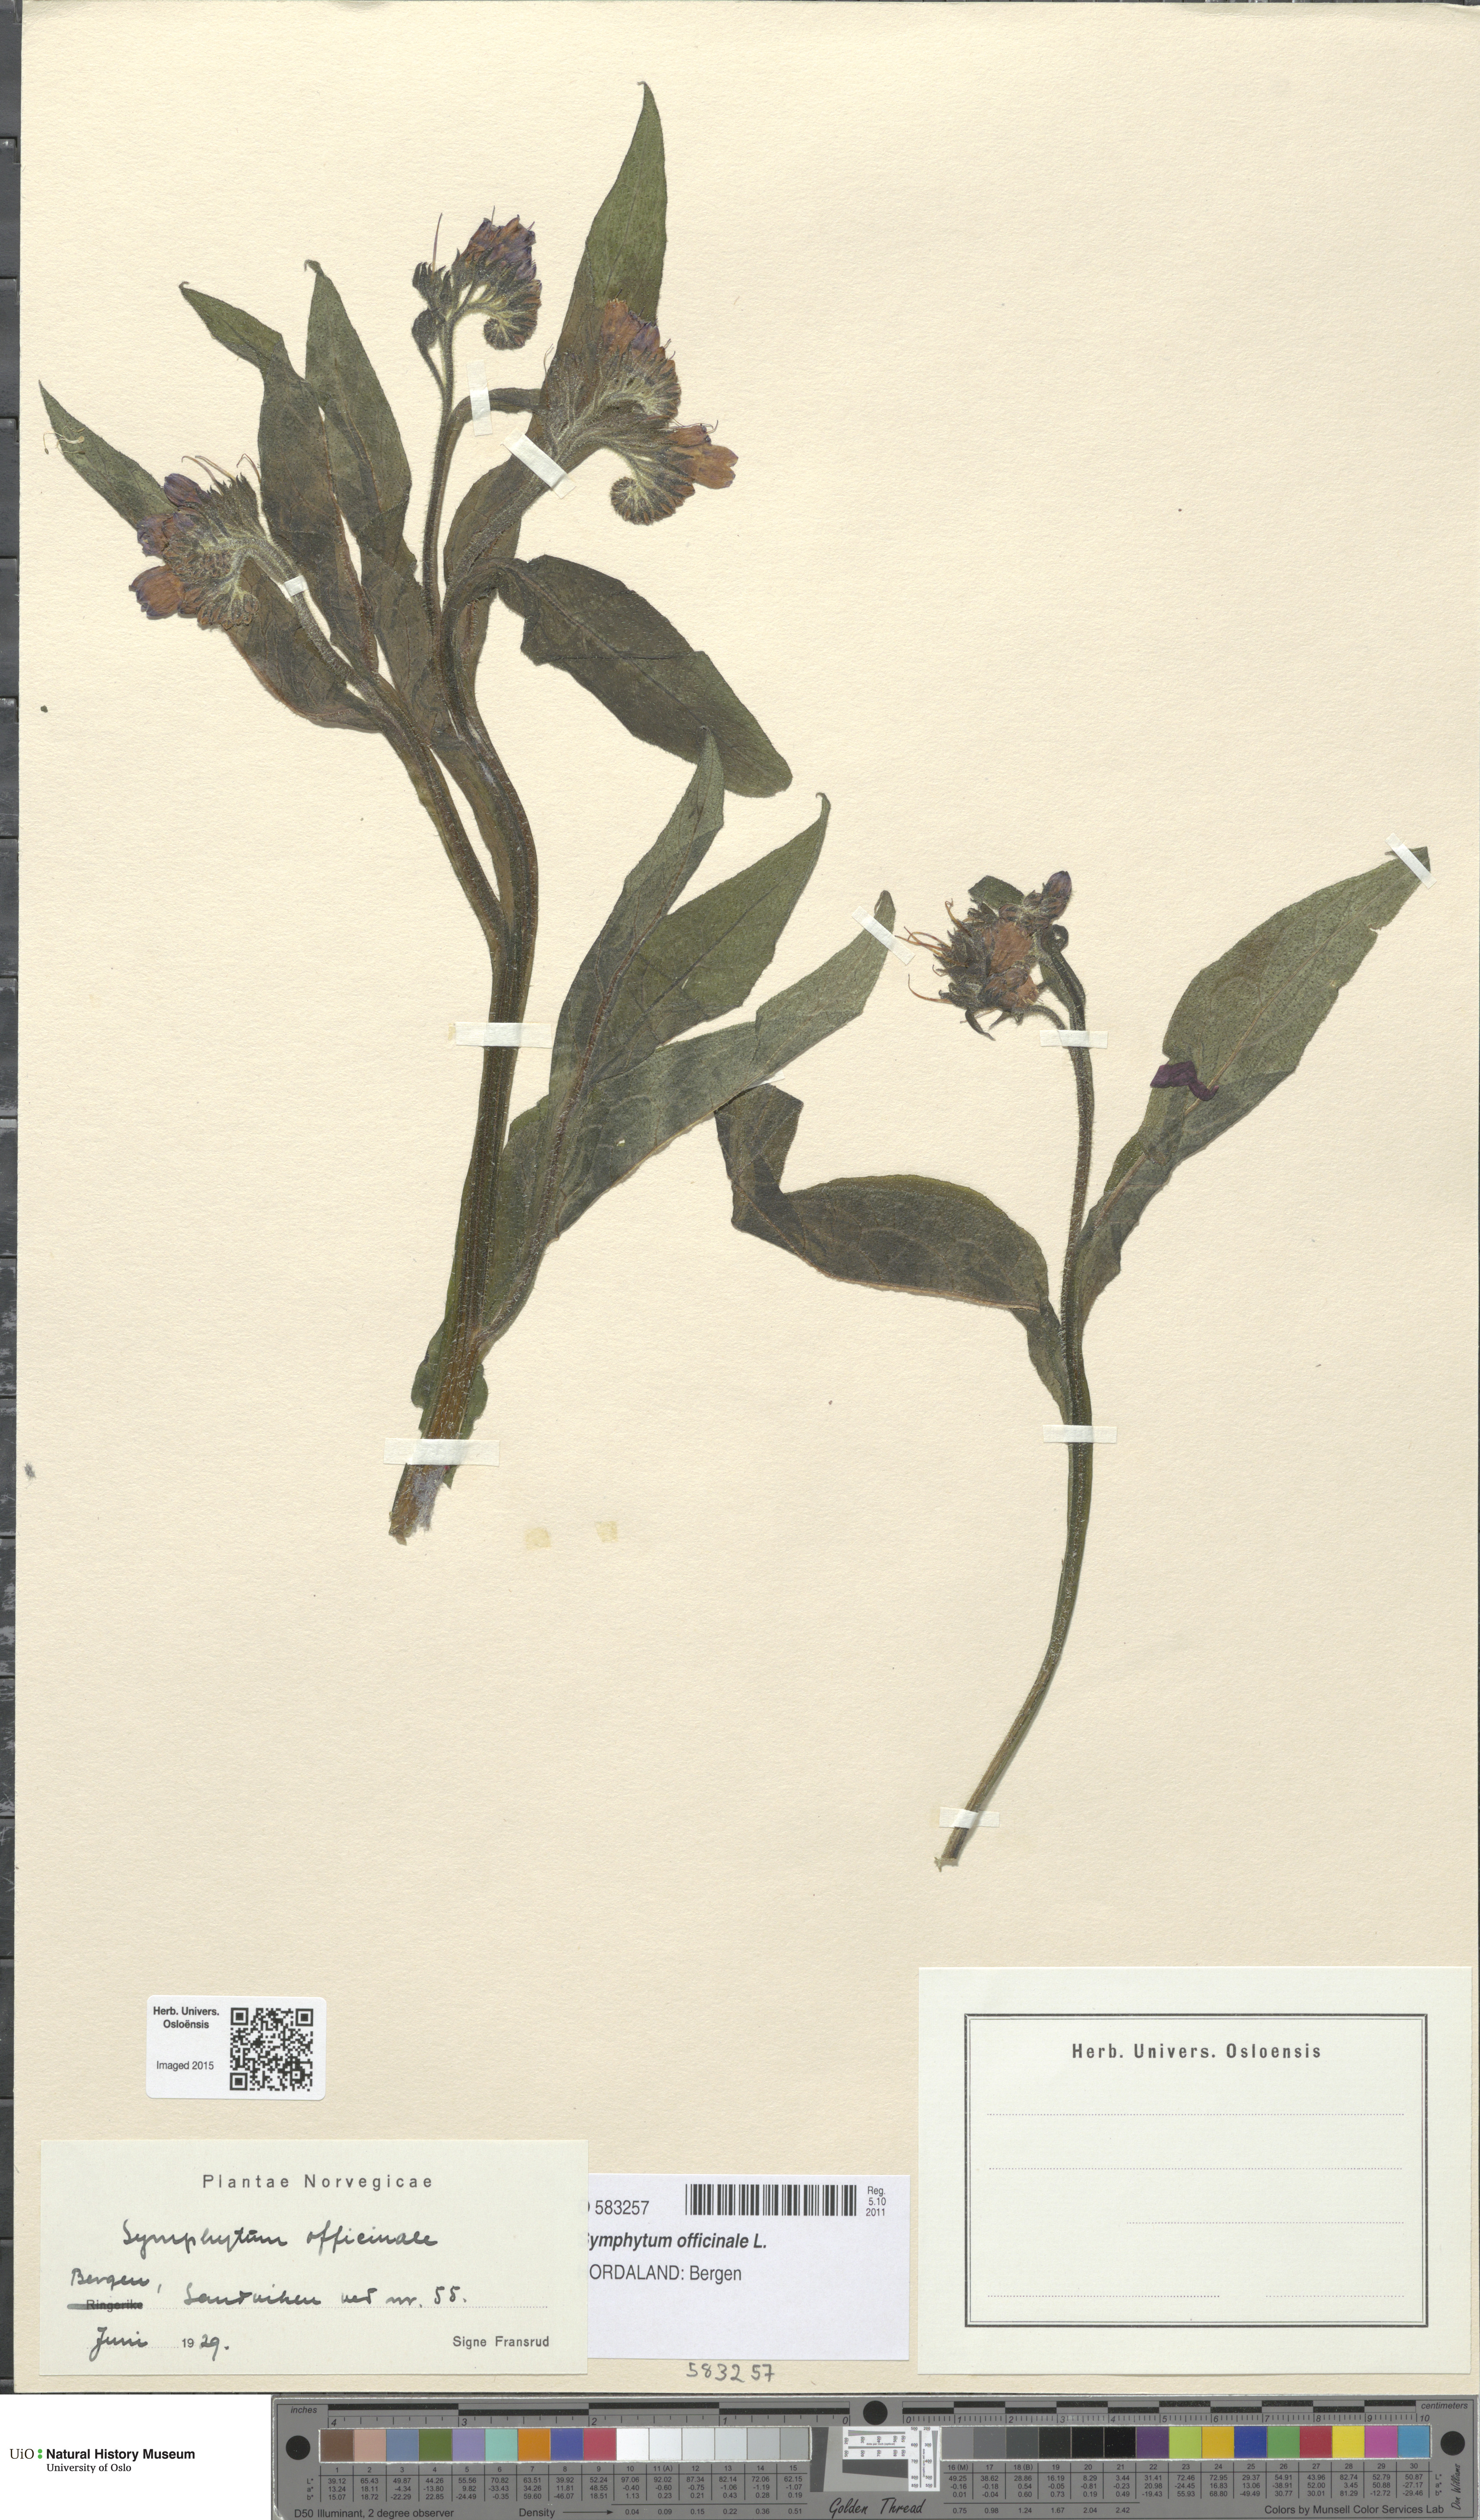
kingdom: Plantae
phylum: Tracheophyta
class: Magnoliopsida
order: Boraginales
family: Boraginaceae
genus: Symphytum
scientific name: Symphytum officinale
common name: Common comfrey
